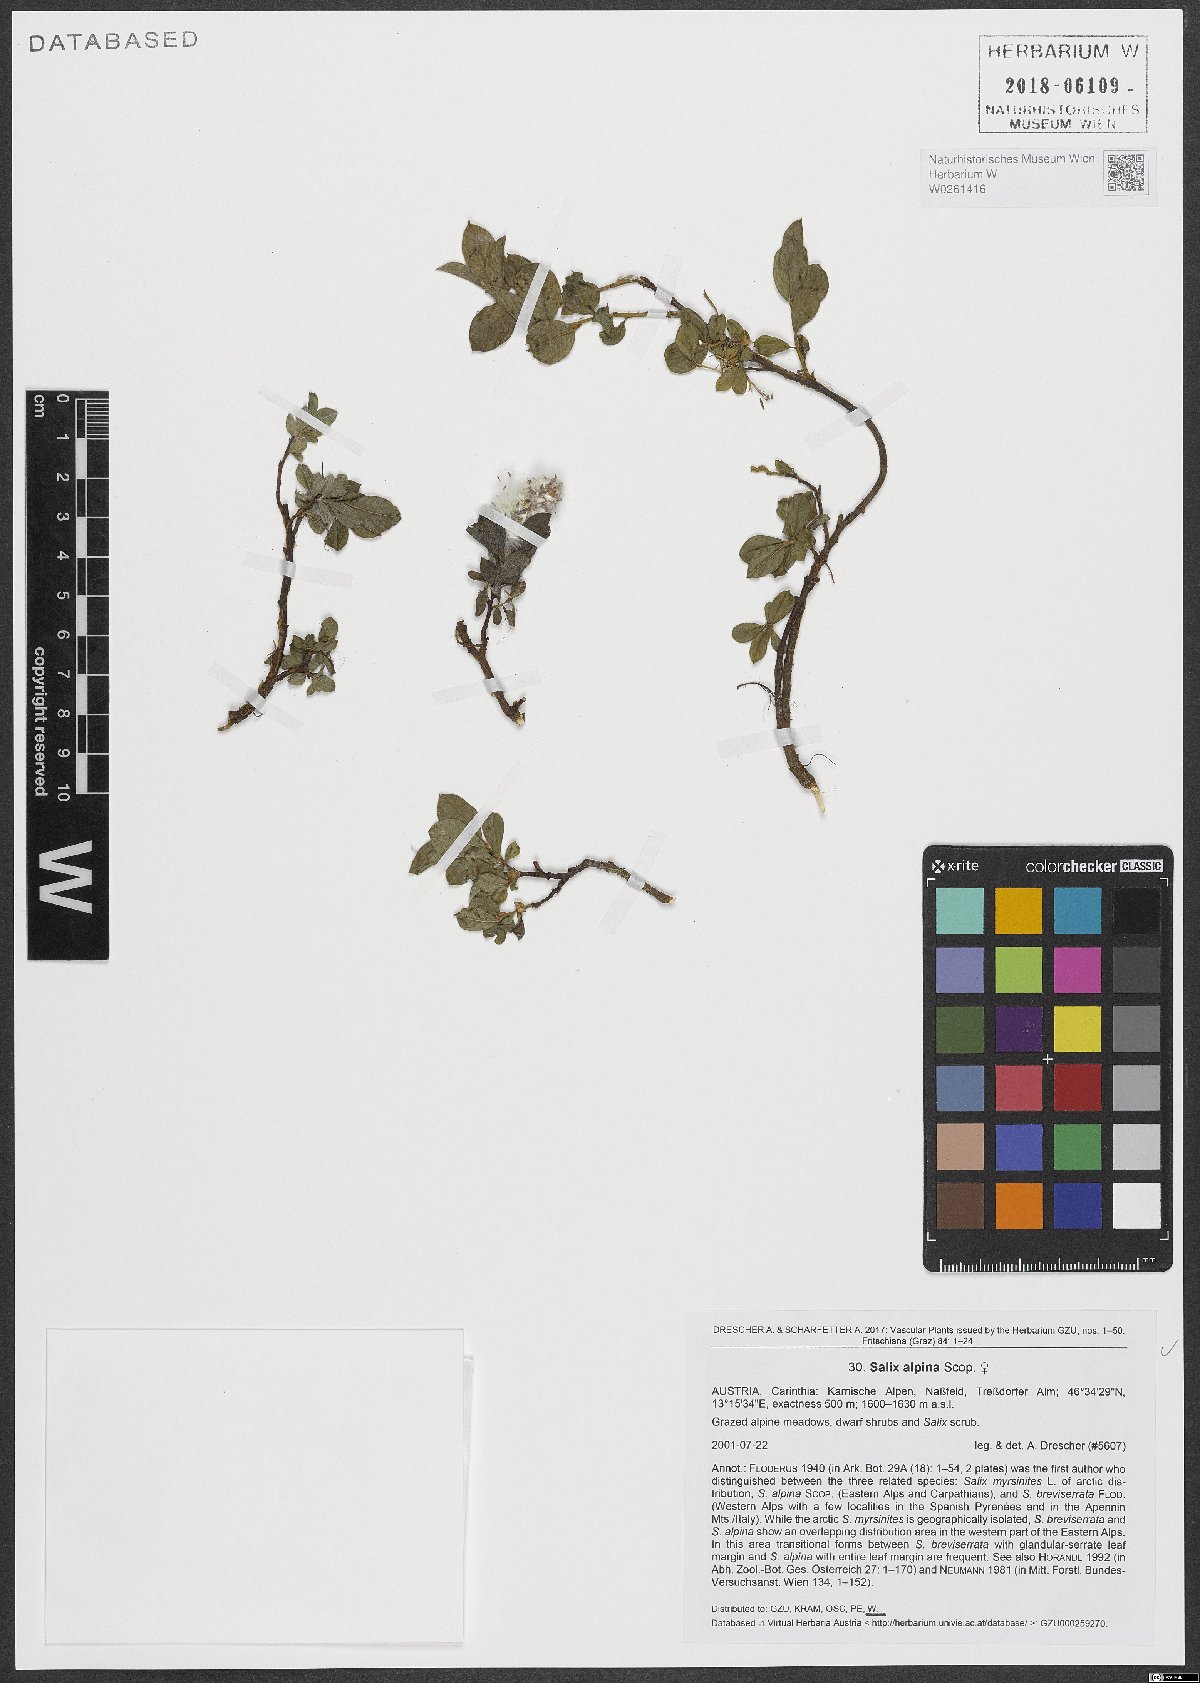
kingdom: Plantae
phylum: Tracheophyta
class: Magnoliopsida
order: Malpighiales
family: Salicaceae
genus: Salix
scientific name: Salix alpina
